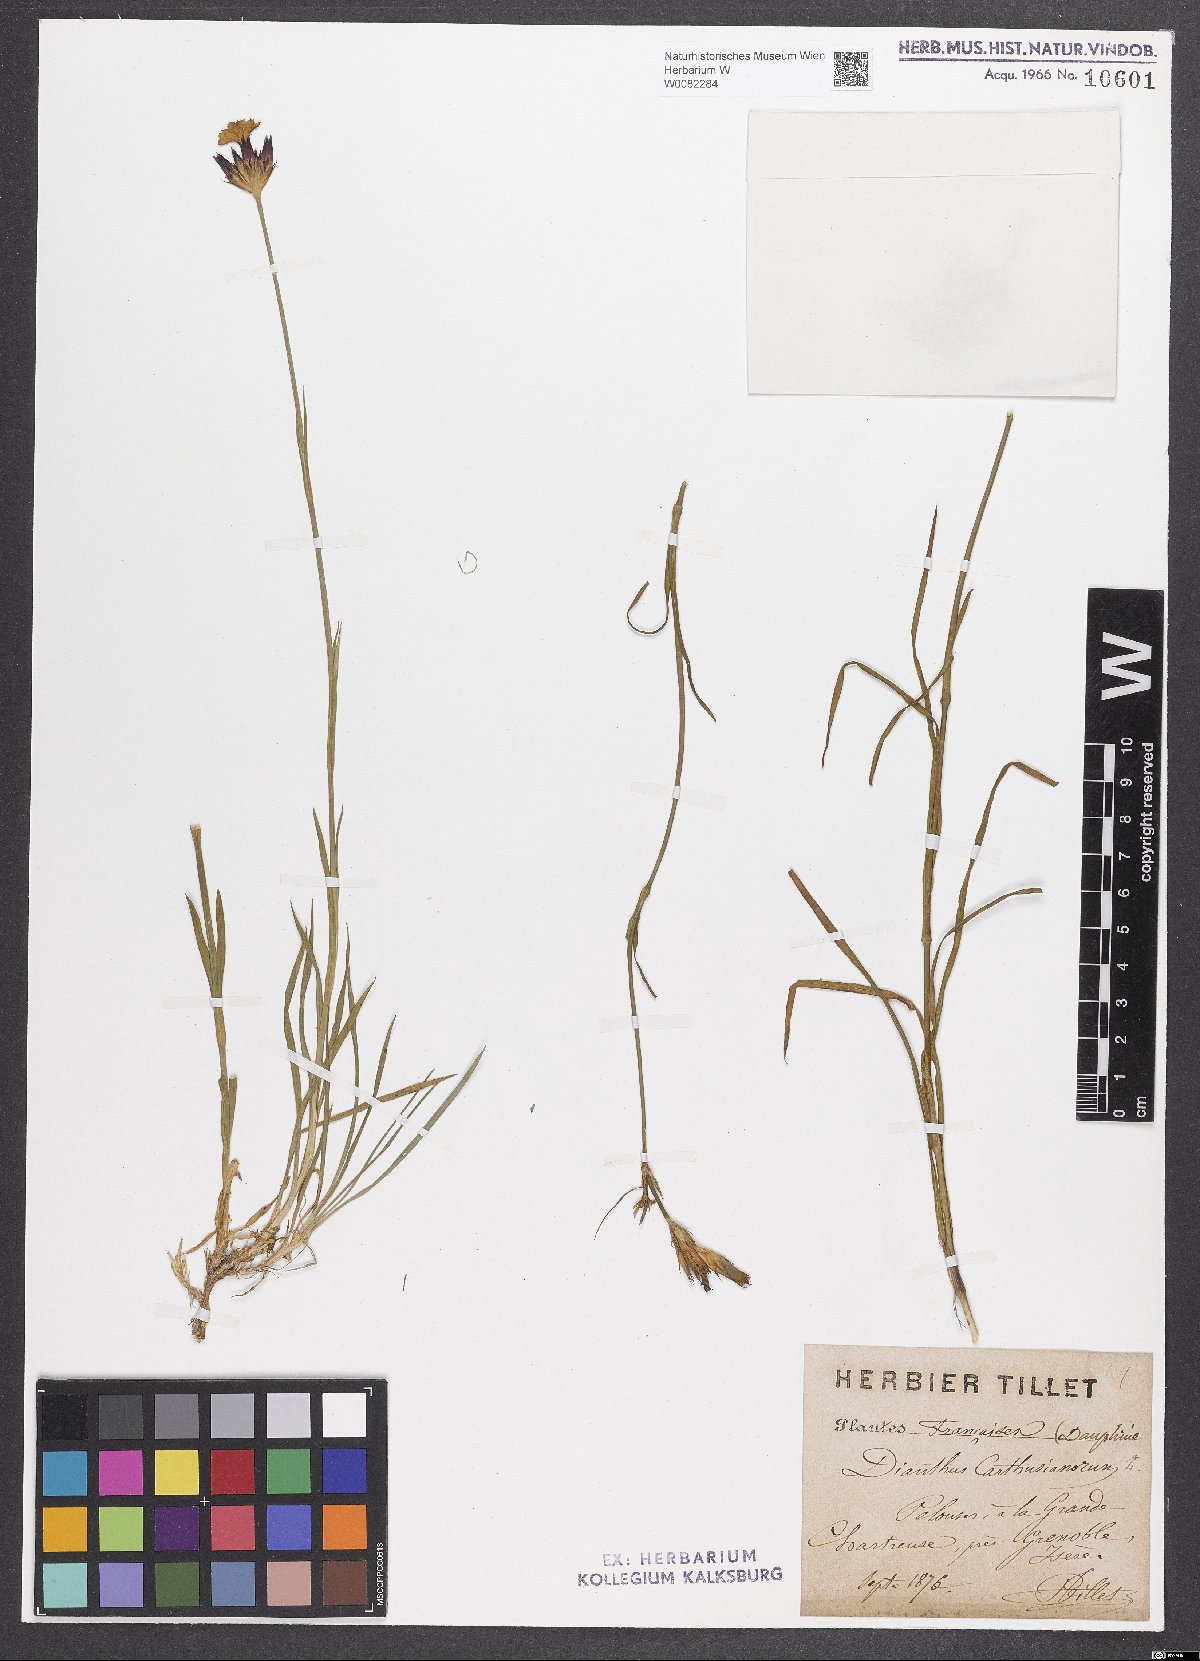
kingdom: Plantae
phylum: Tracheophyta
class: Magnoliopsida
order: Caryophyllales
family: Caryophyllaceae
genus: Dianthus
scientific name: Dianthus carthusianorum
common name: Carthusian pink
